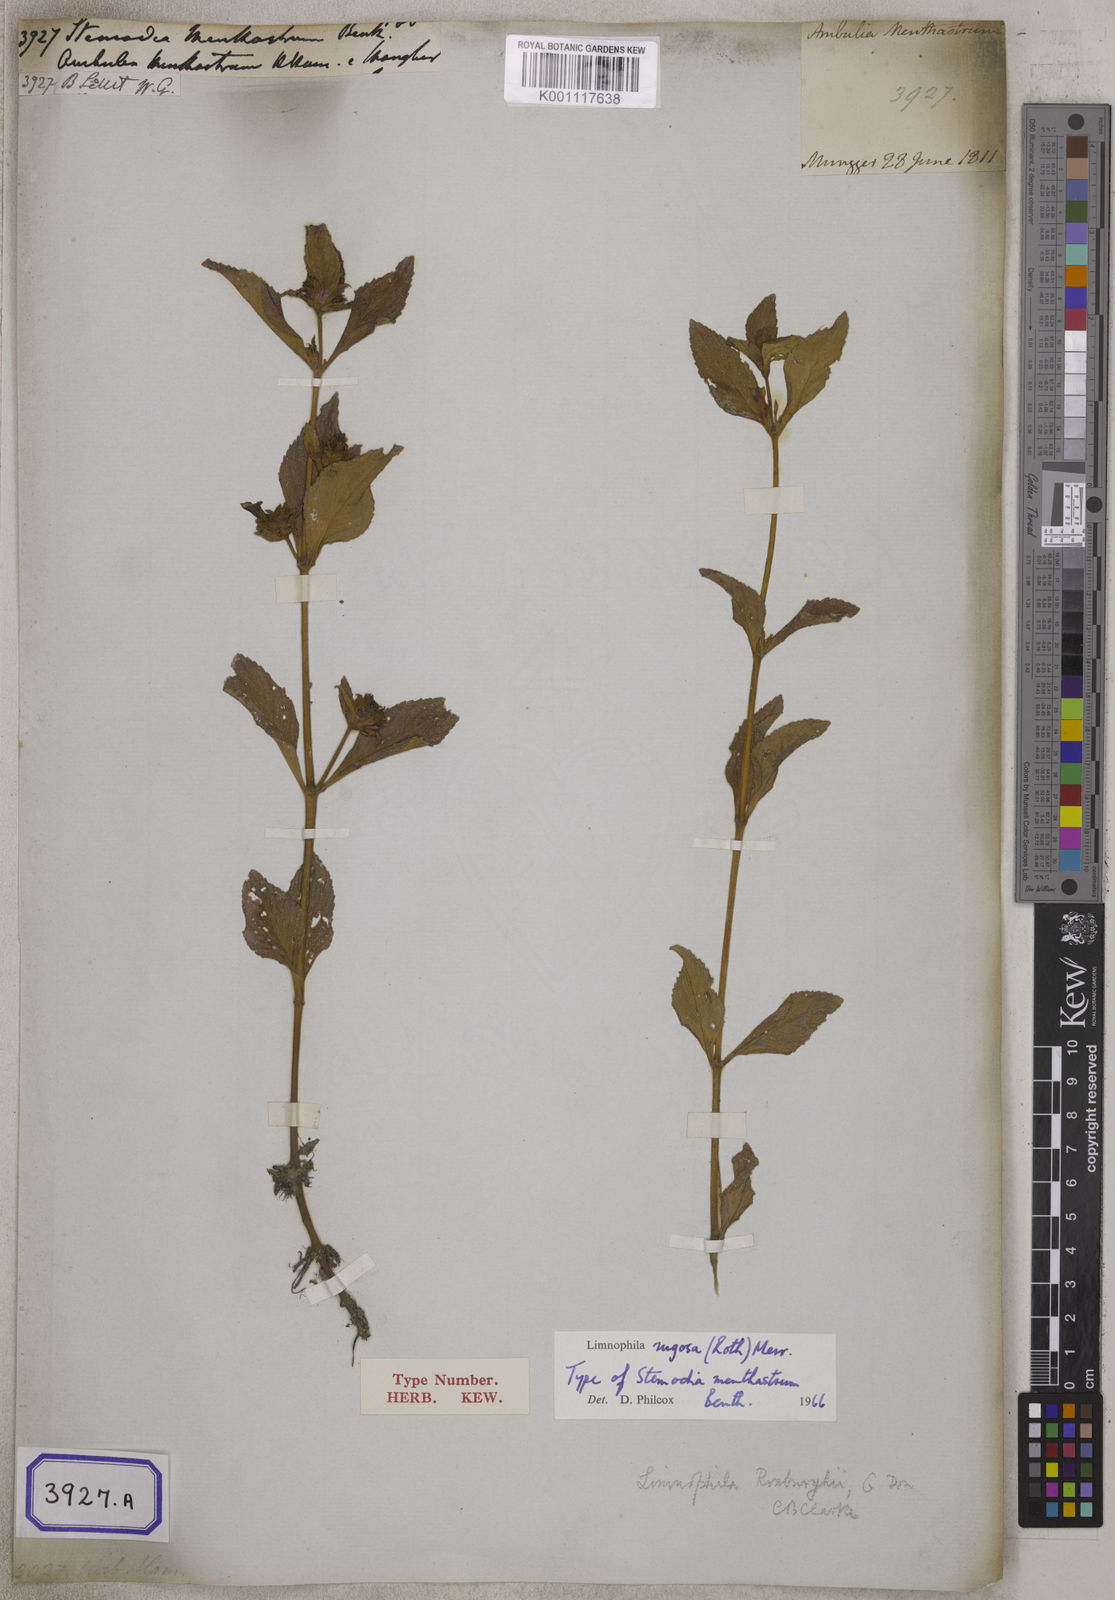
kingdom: Plantae
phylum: Tracheophyta
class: Magnoliopsida
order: Lamiales
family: Plantaginaceae
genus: Stemodia
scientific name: Stemodia
